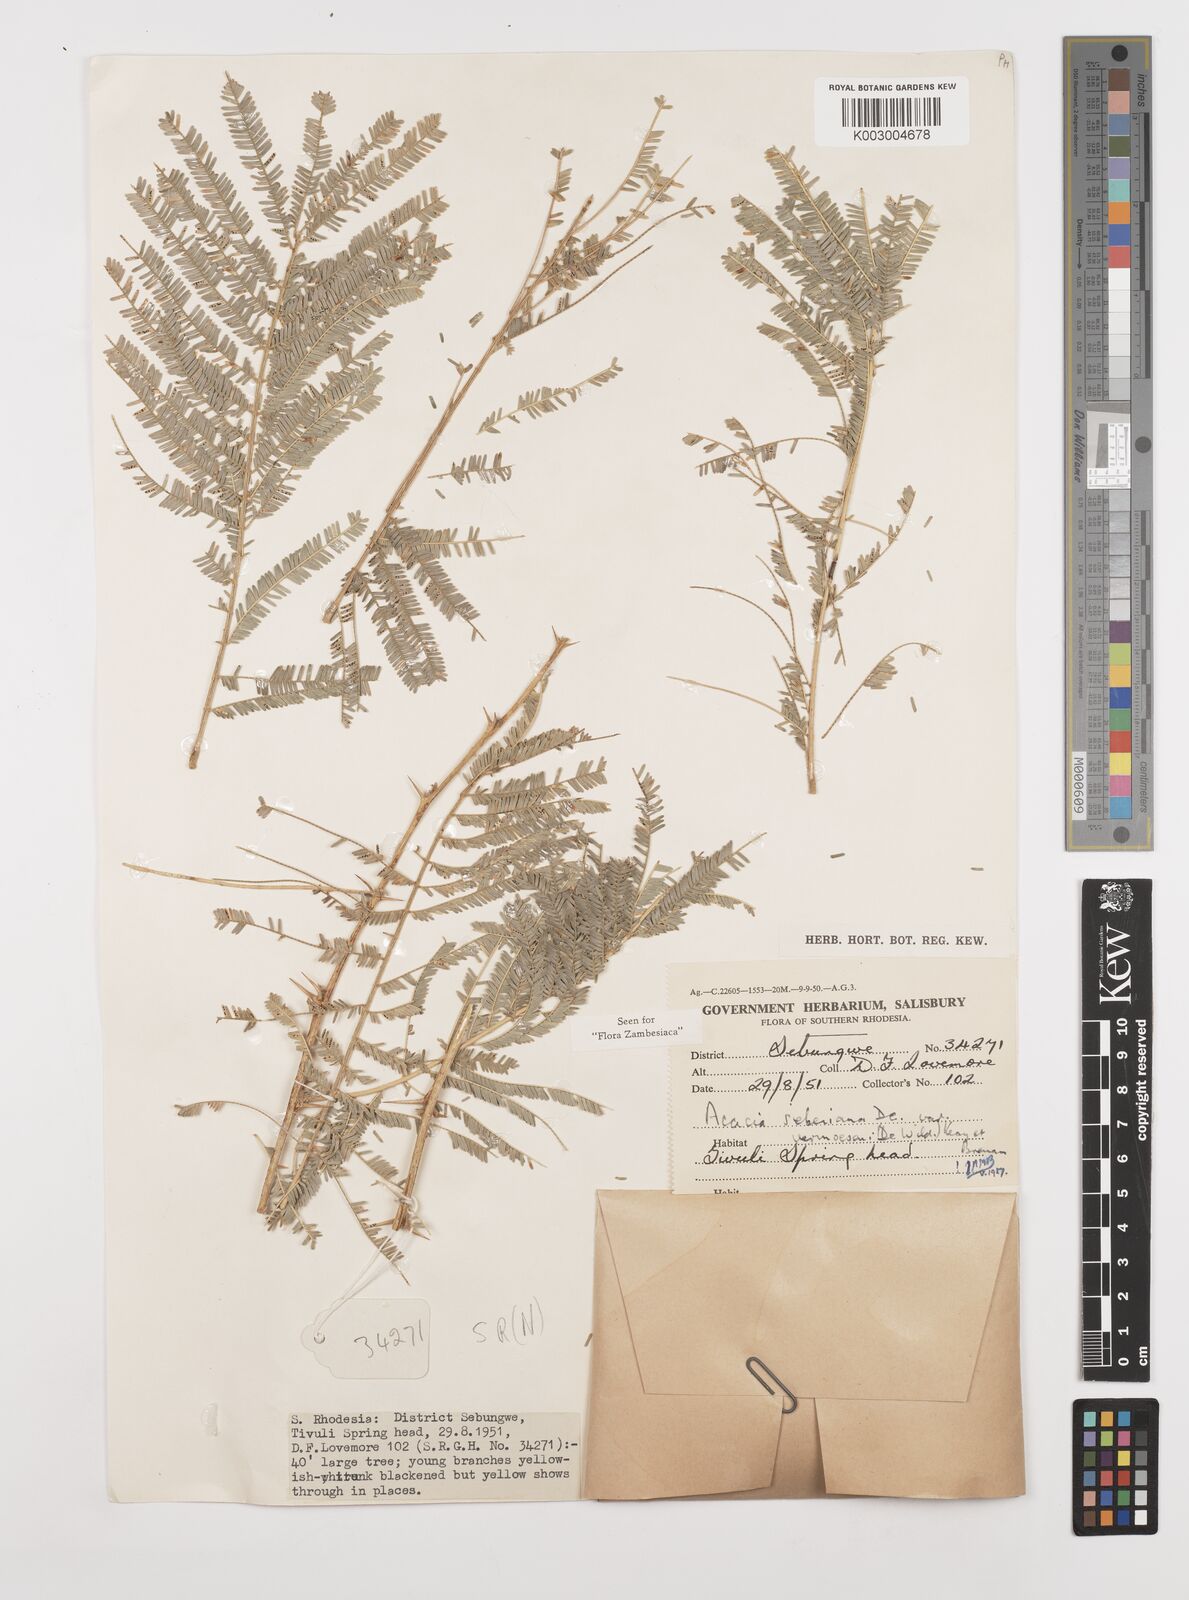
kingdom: Plantae
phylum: Tracheophyta
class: Magnoliopsida
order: Fabales
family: Fabaceae
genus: Vachellia
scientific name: Vachellia sieberiana
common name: Flat-topped thorn
